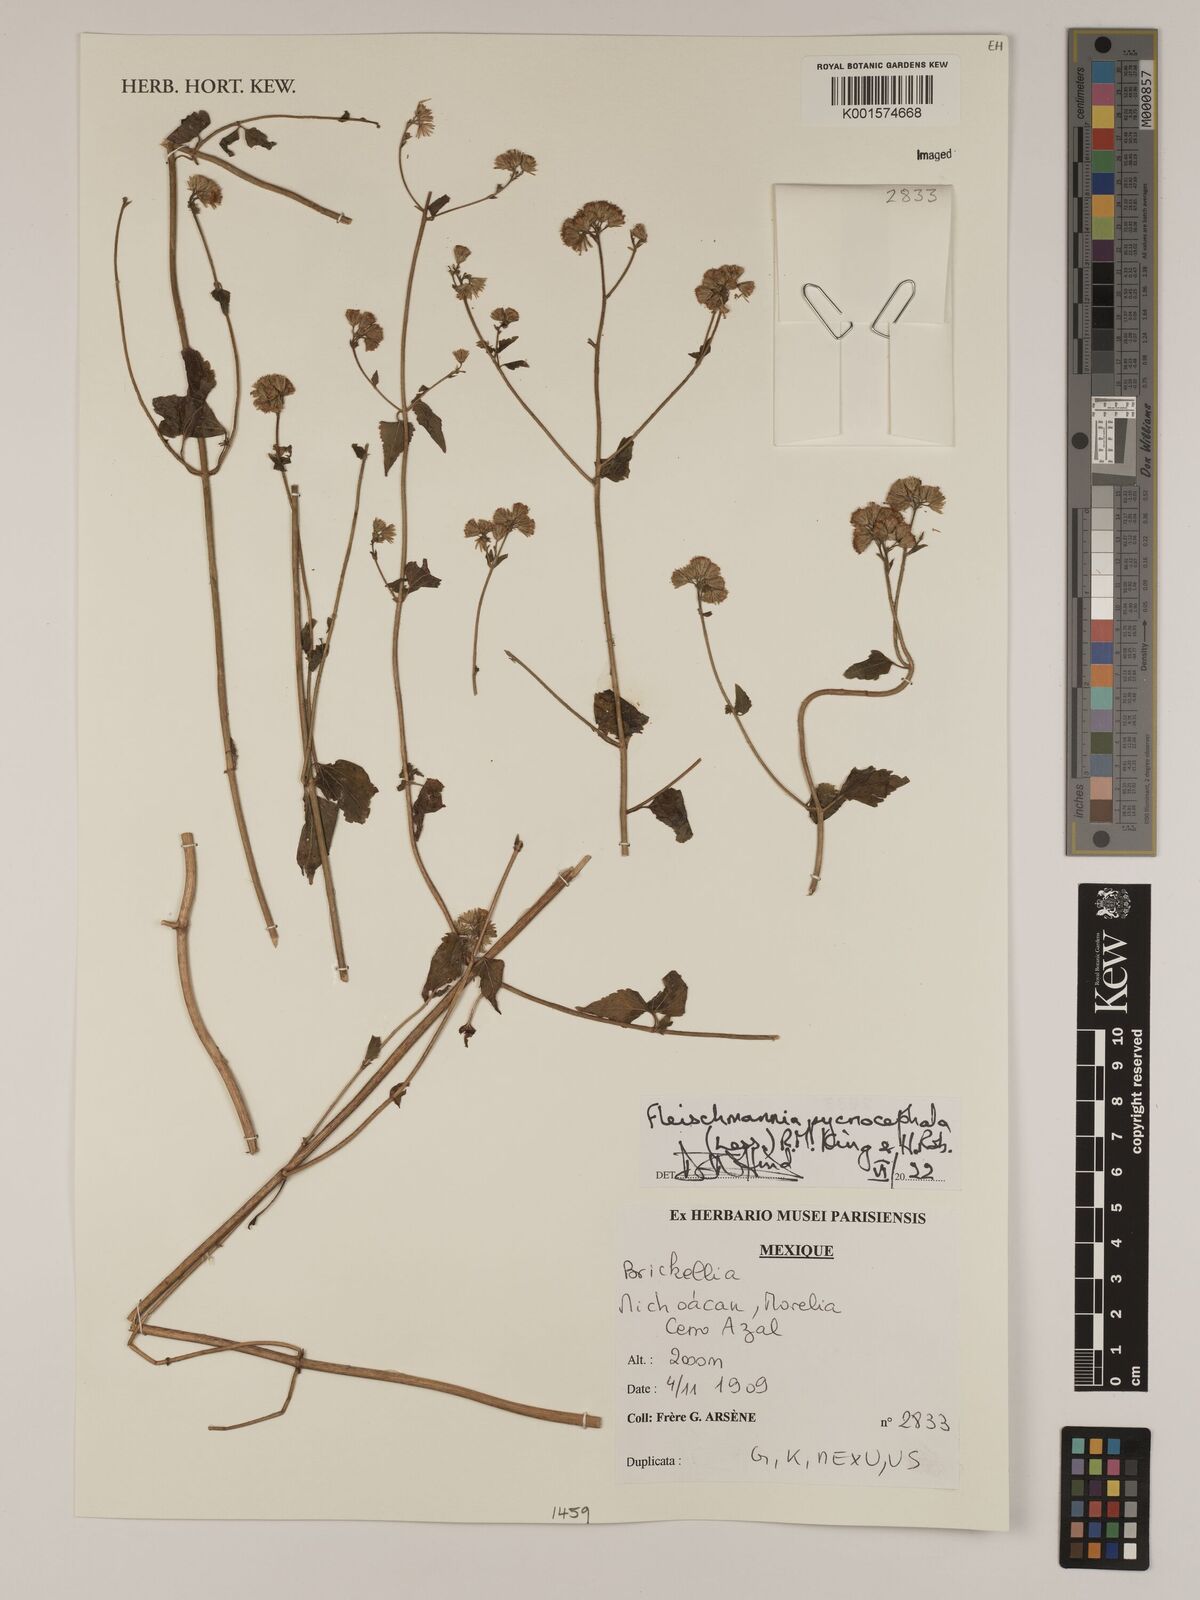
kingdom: Plantae
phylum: Tracheophyta
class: Magnoliopsida
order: Asterales
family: Asteraceae
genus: Fleischmannia
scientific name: Fleischmannia pycnocephala
